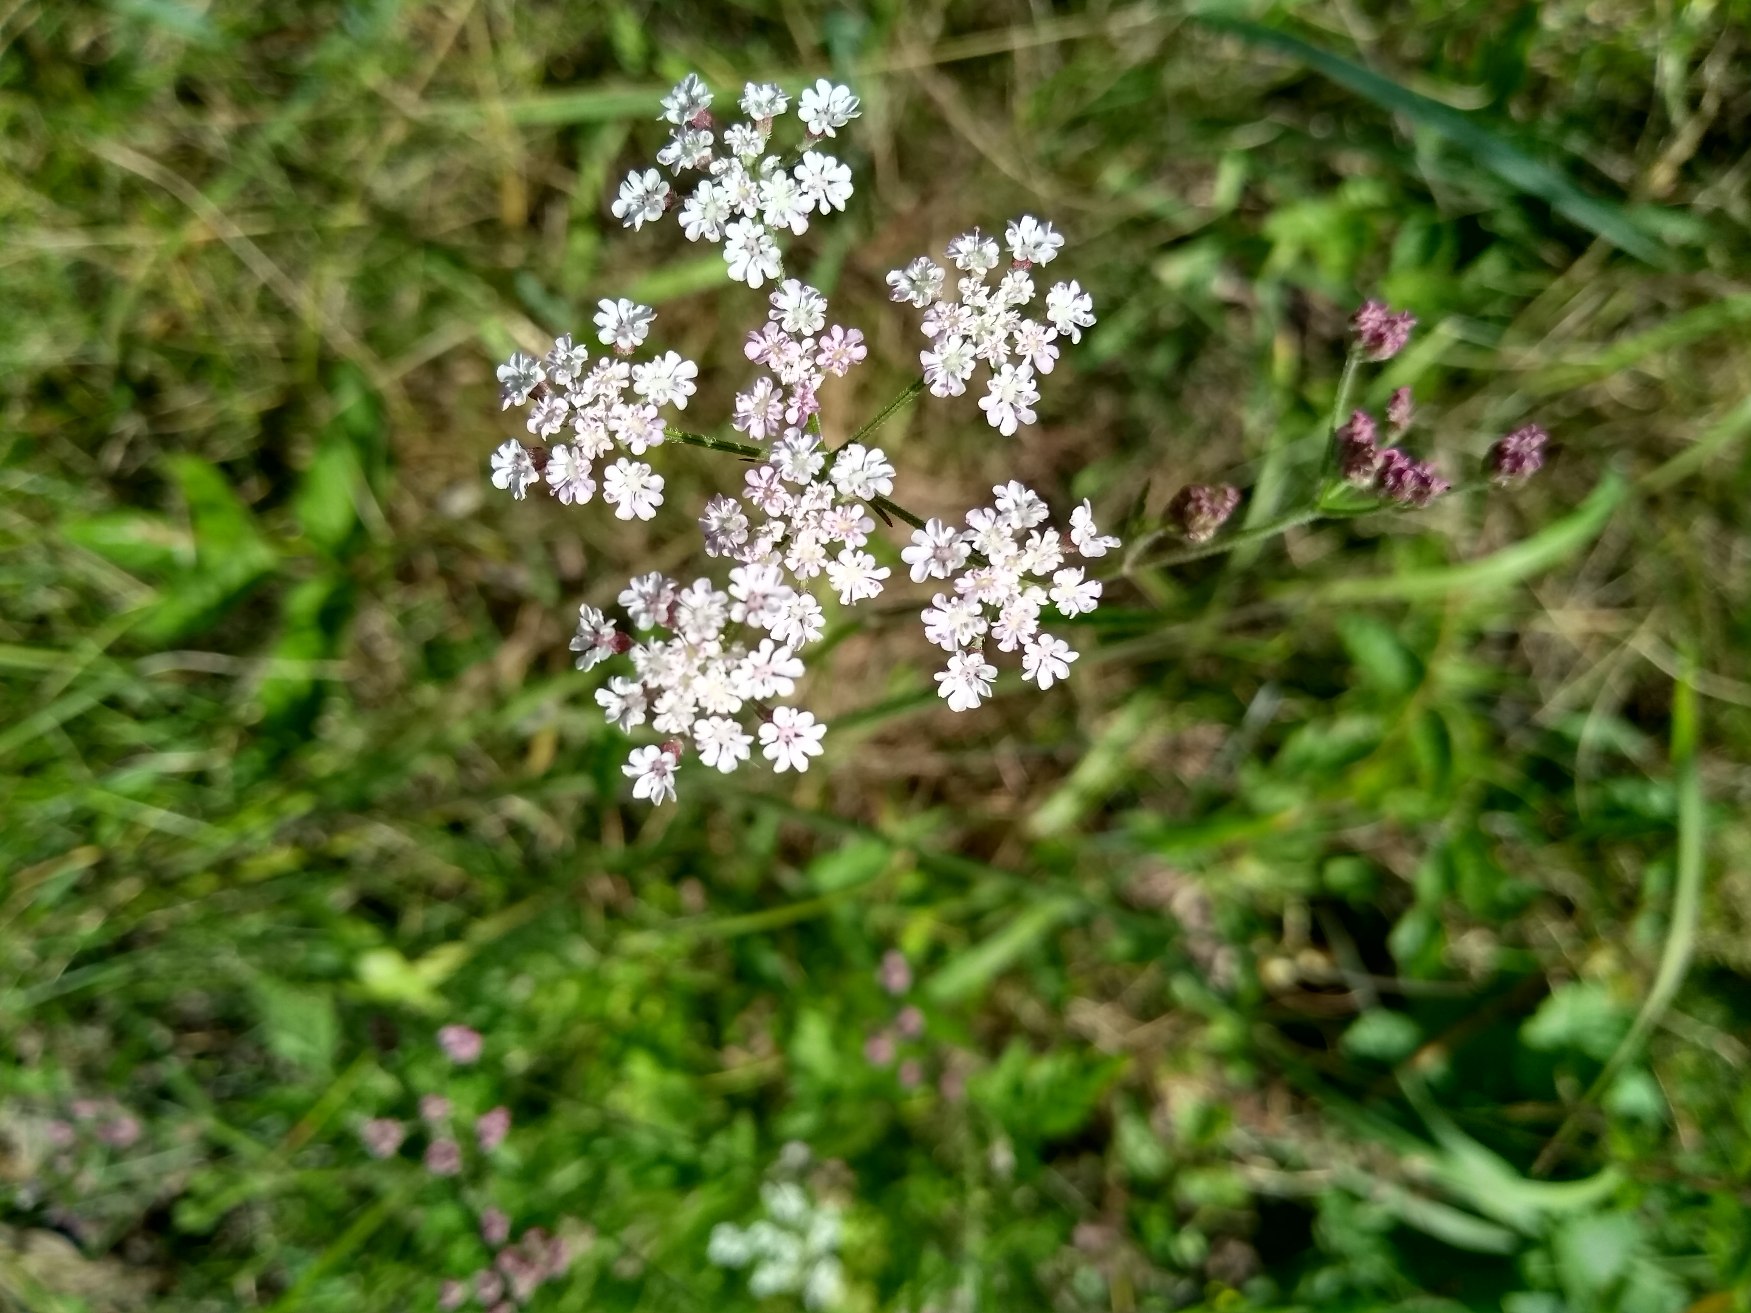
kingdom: Plantae
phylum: Tracheophyta
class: Magnoliopsida
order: Apiales
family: Apiaceae
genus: Torilis
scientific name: Torilis japonica
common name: Hvas randfrø
